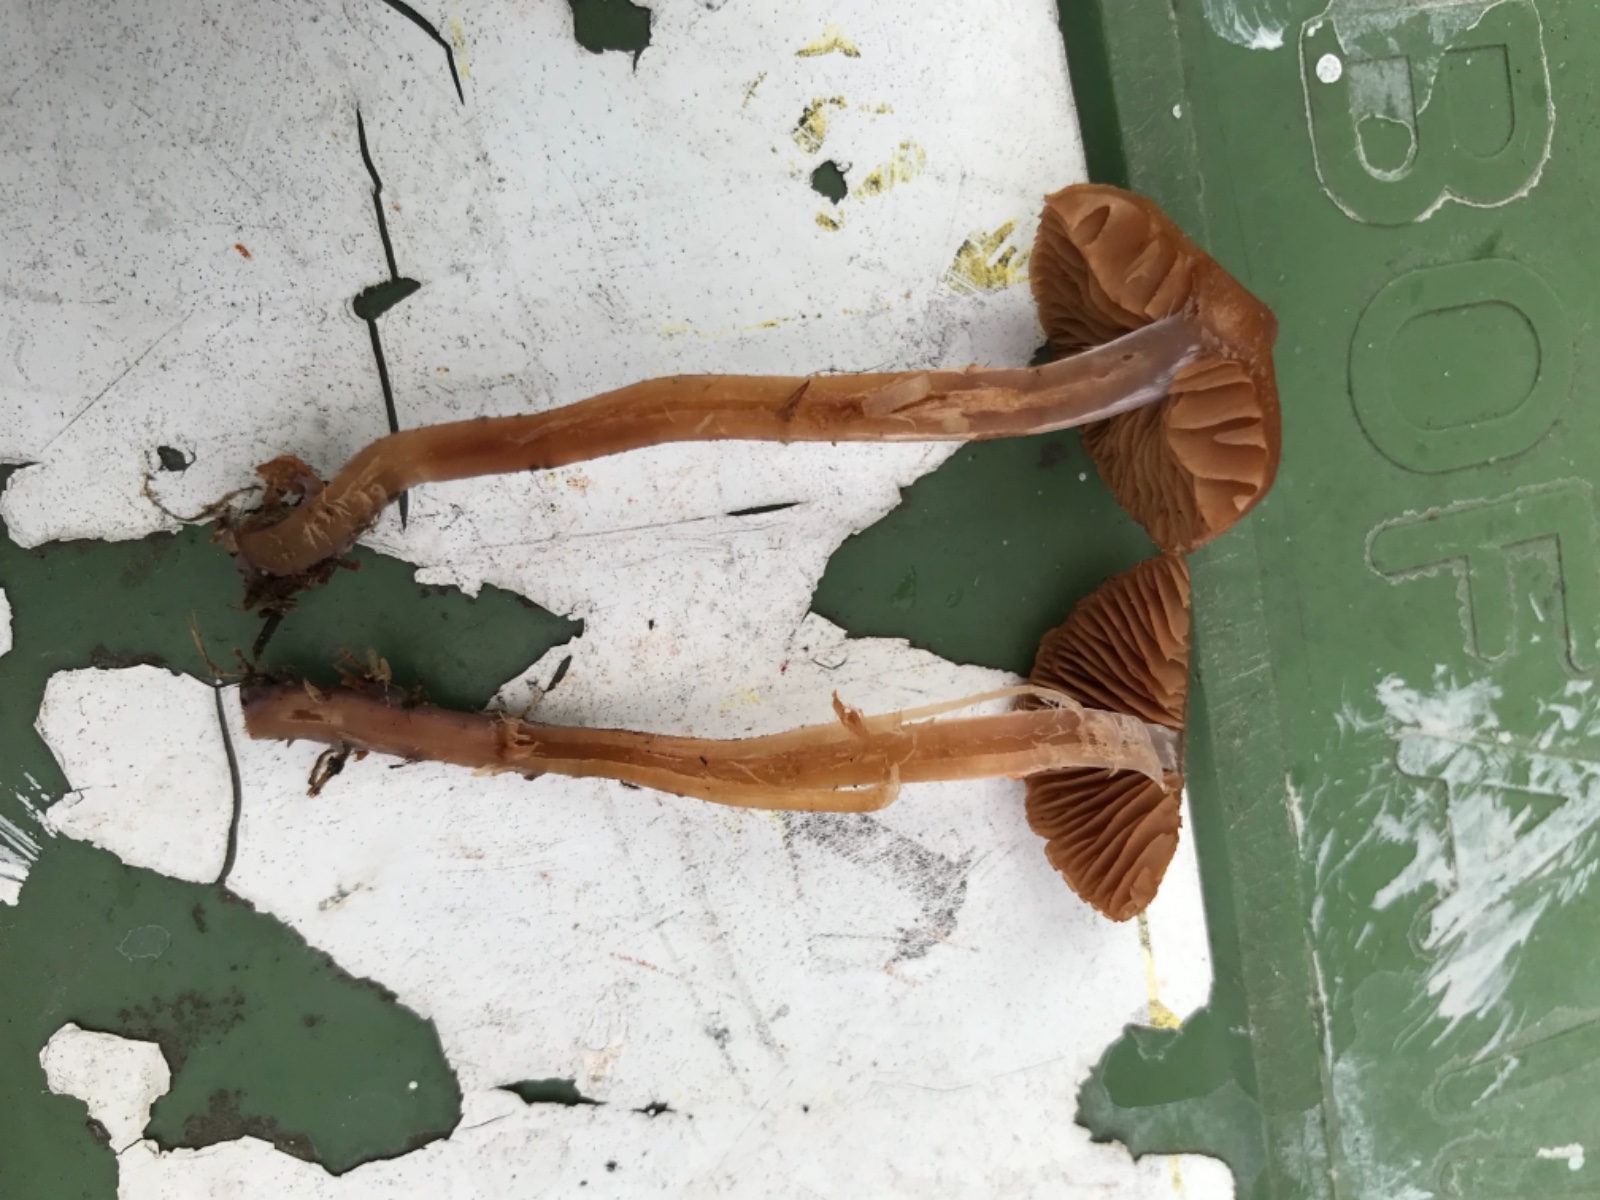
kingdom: Fungi
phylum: Basidiomycota
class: Agaricomycetes
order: Agaricales
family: Cortinariaceae
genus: Cortinarius
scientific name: Cortinarius
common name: pelargonie-slørhat
